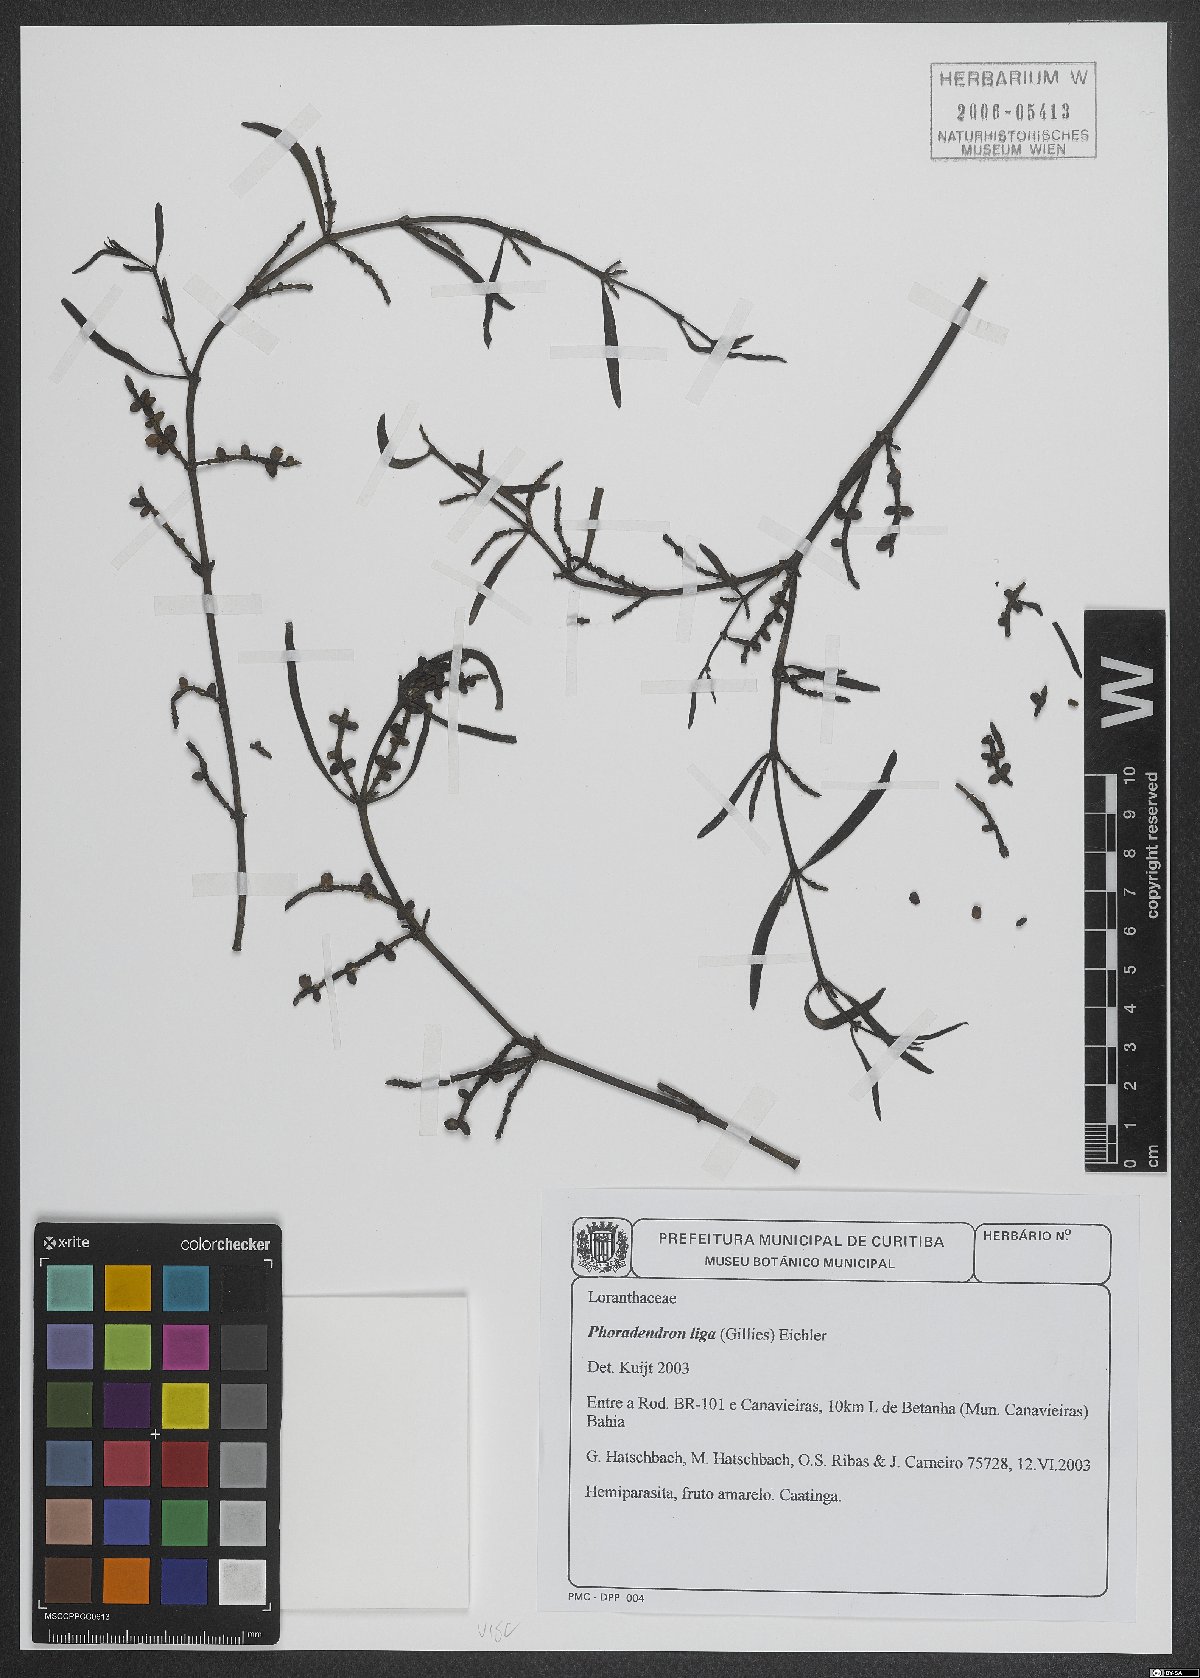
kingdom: Plantae
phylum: Tracheophyta
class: Magnoliopsida
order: Santalales
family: Viscaceae
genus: Phoradendron
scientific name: Phoradendron liga
